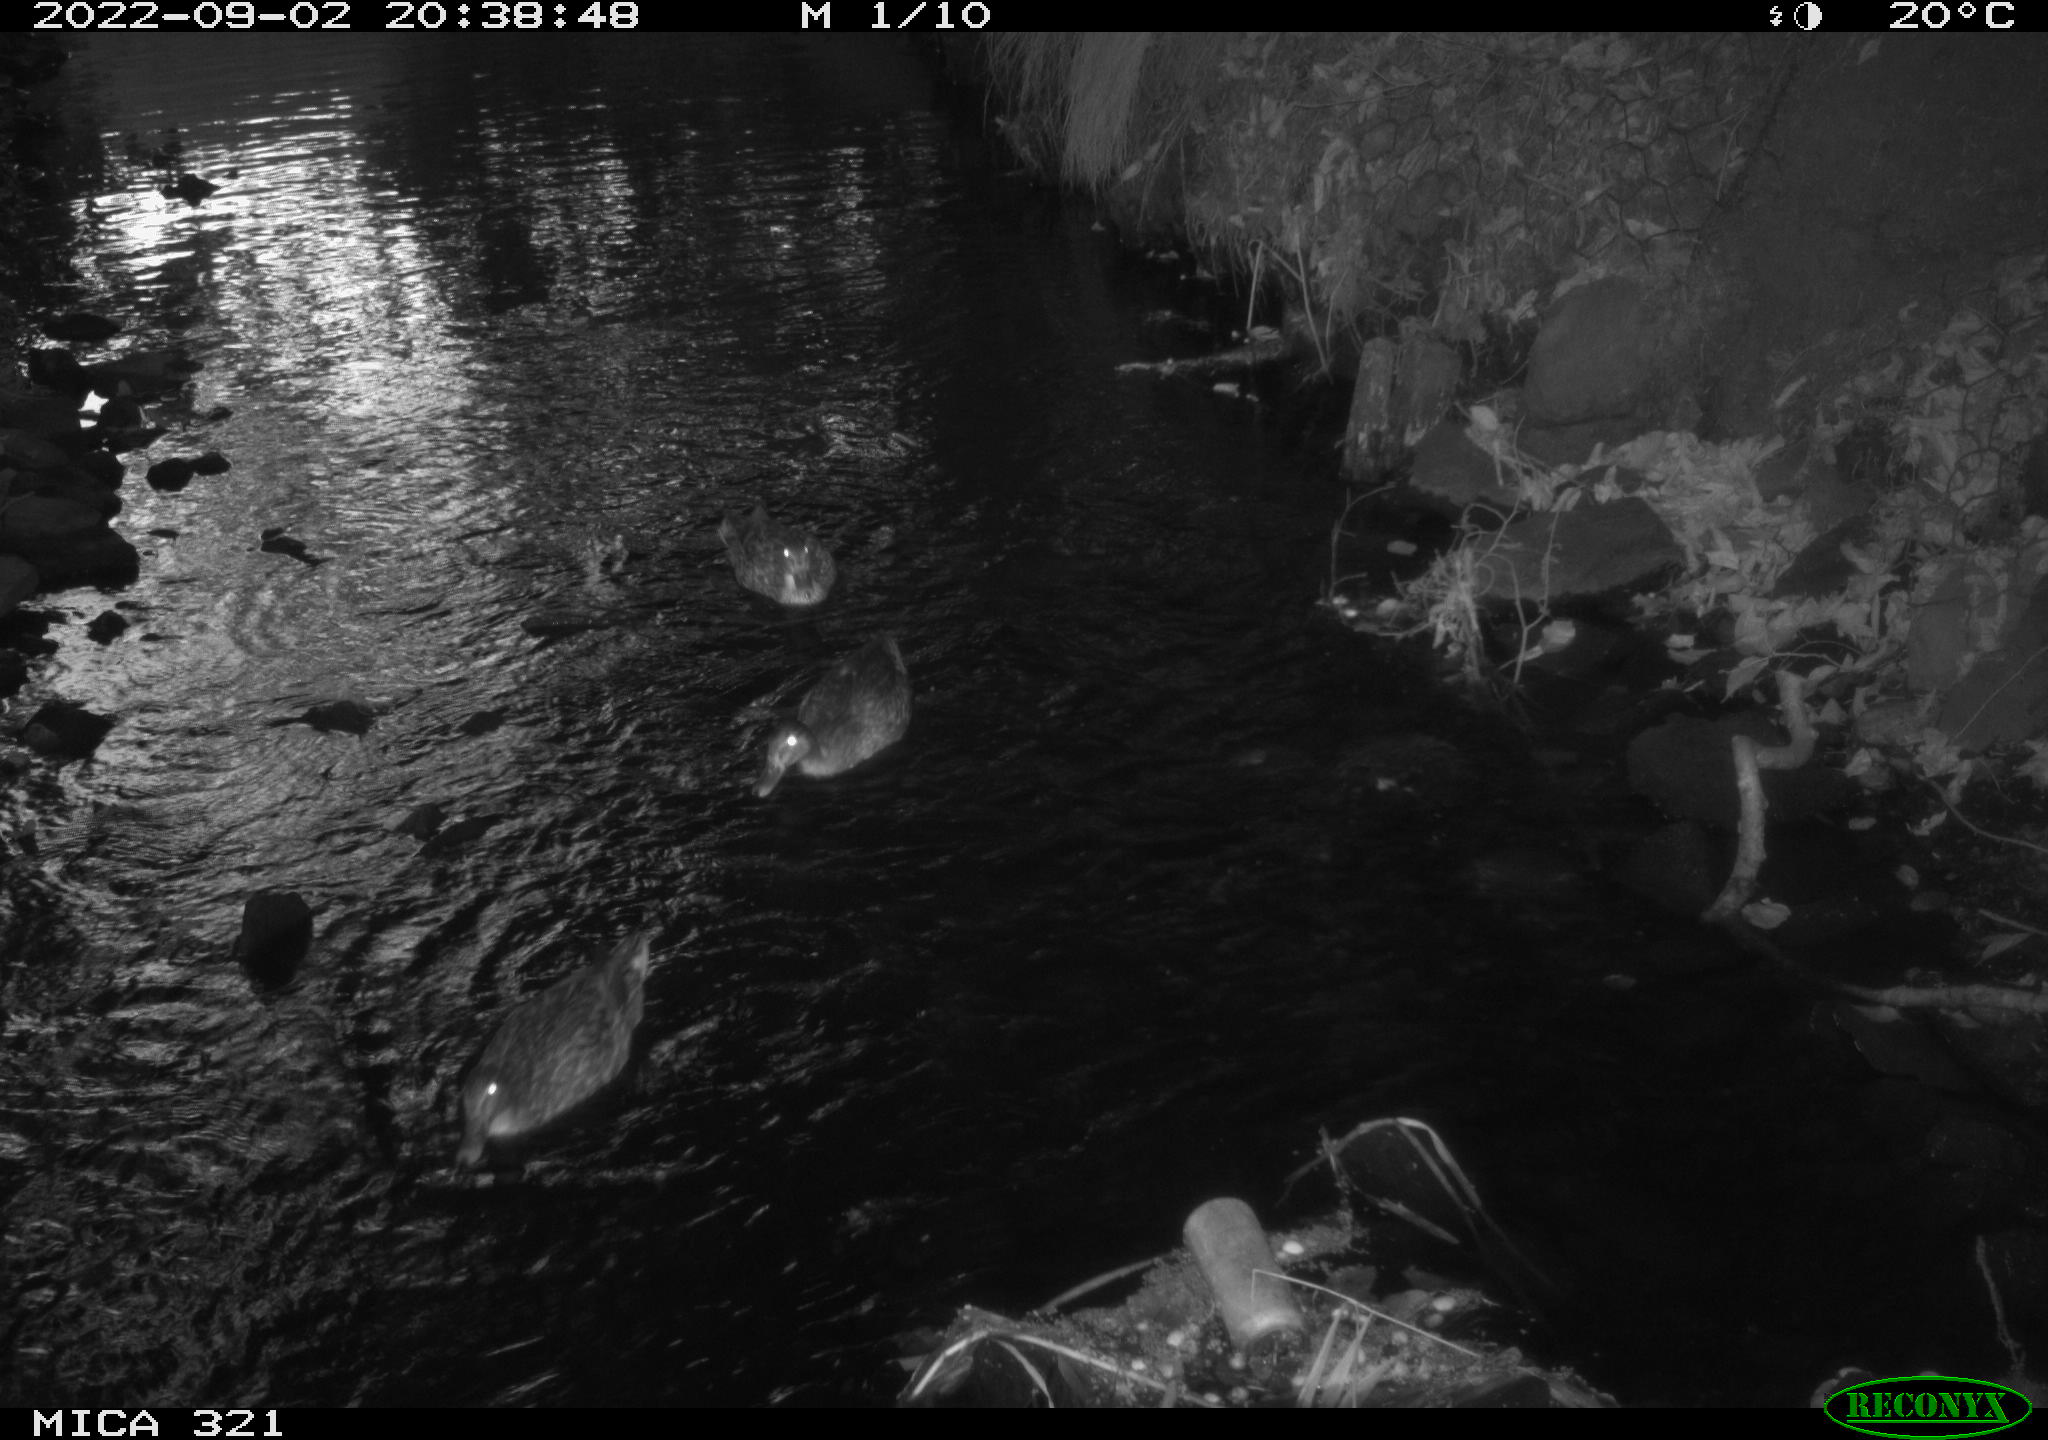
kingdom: Animalia
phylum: Chordata
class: Aves
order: Anseriformes
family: Anatidae
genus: Anas
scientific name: Anas platyrhynchos
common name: Mallard
